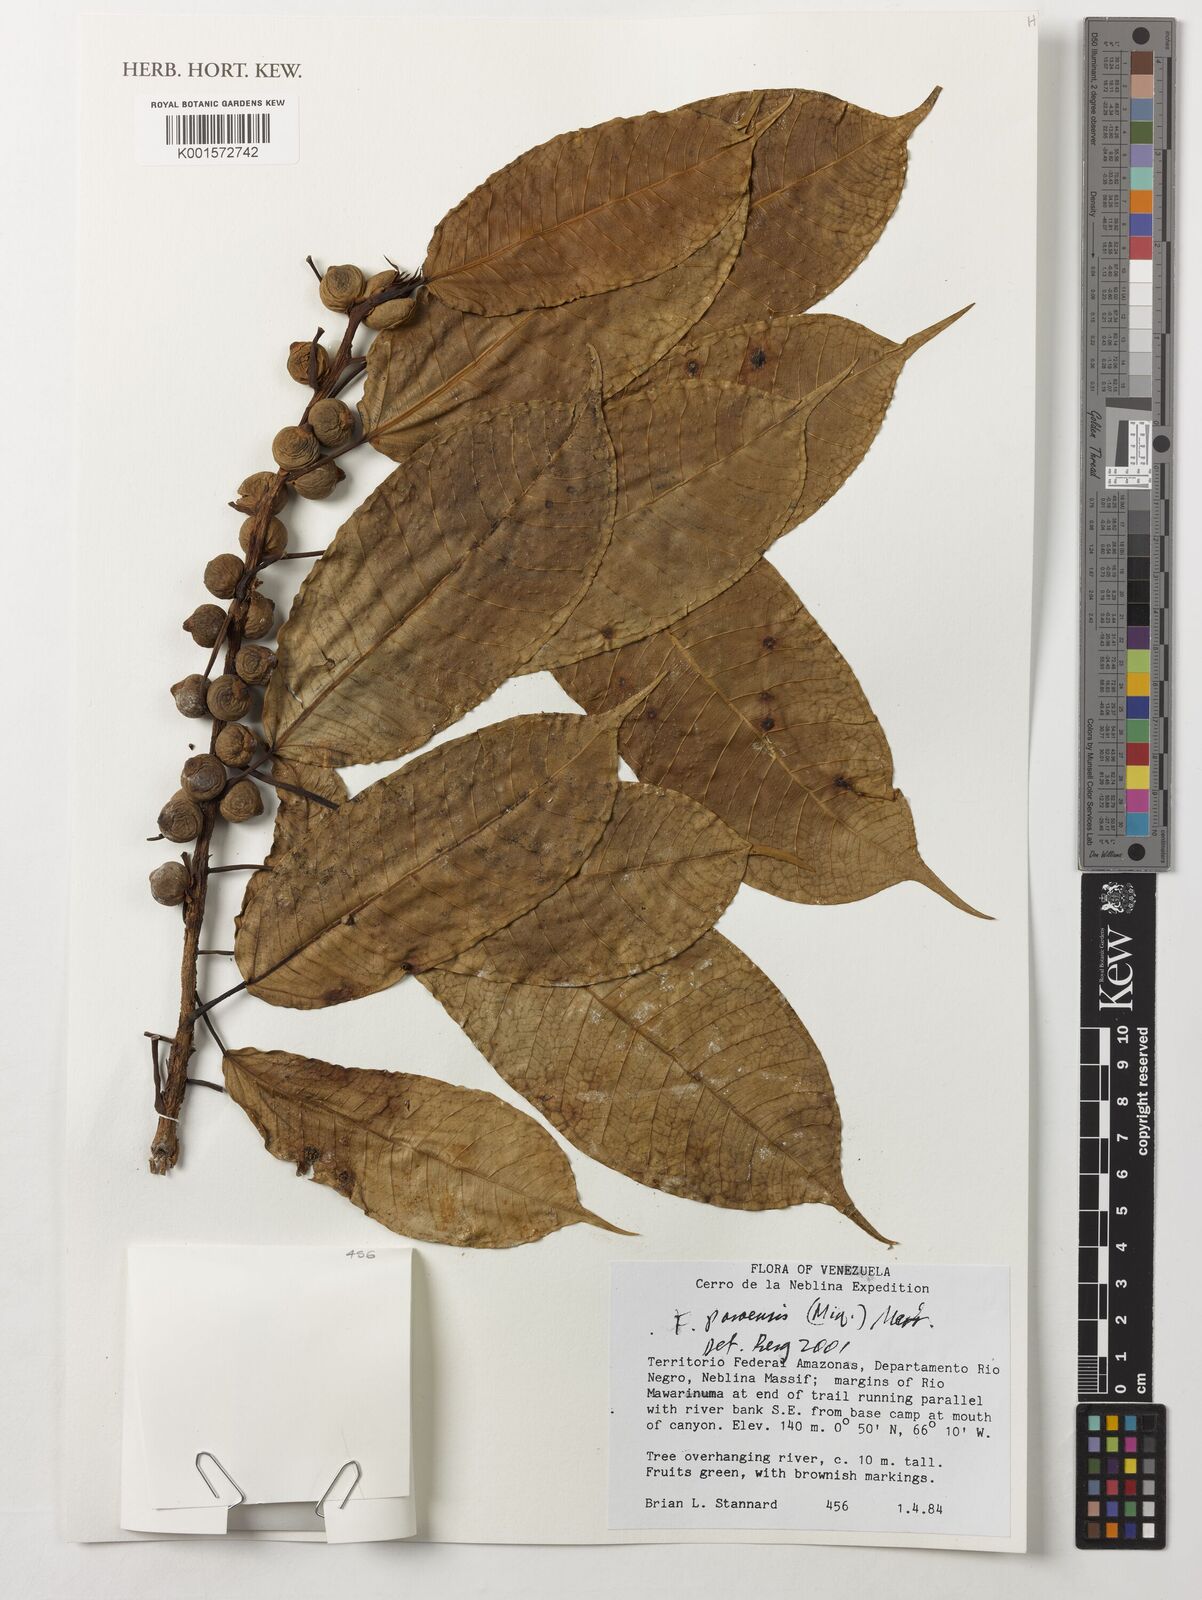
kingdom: Plantae
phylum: Tracheophyta
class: Magnoliopsida
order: Rosales
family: Moraceae
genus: Ficus
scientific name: Ficus paraensis
